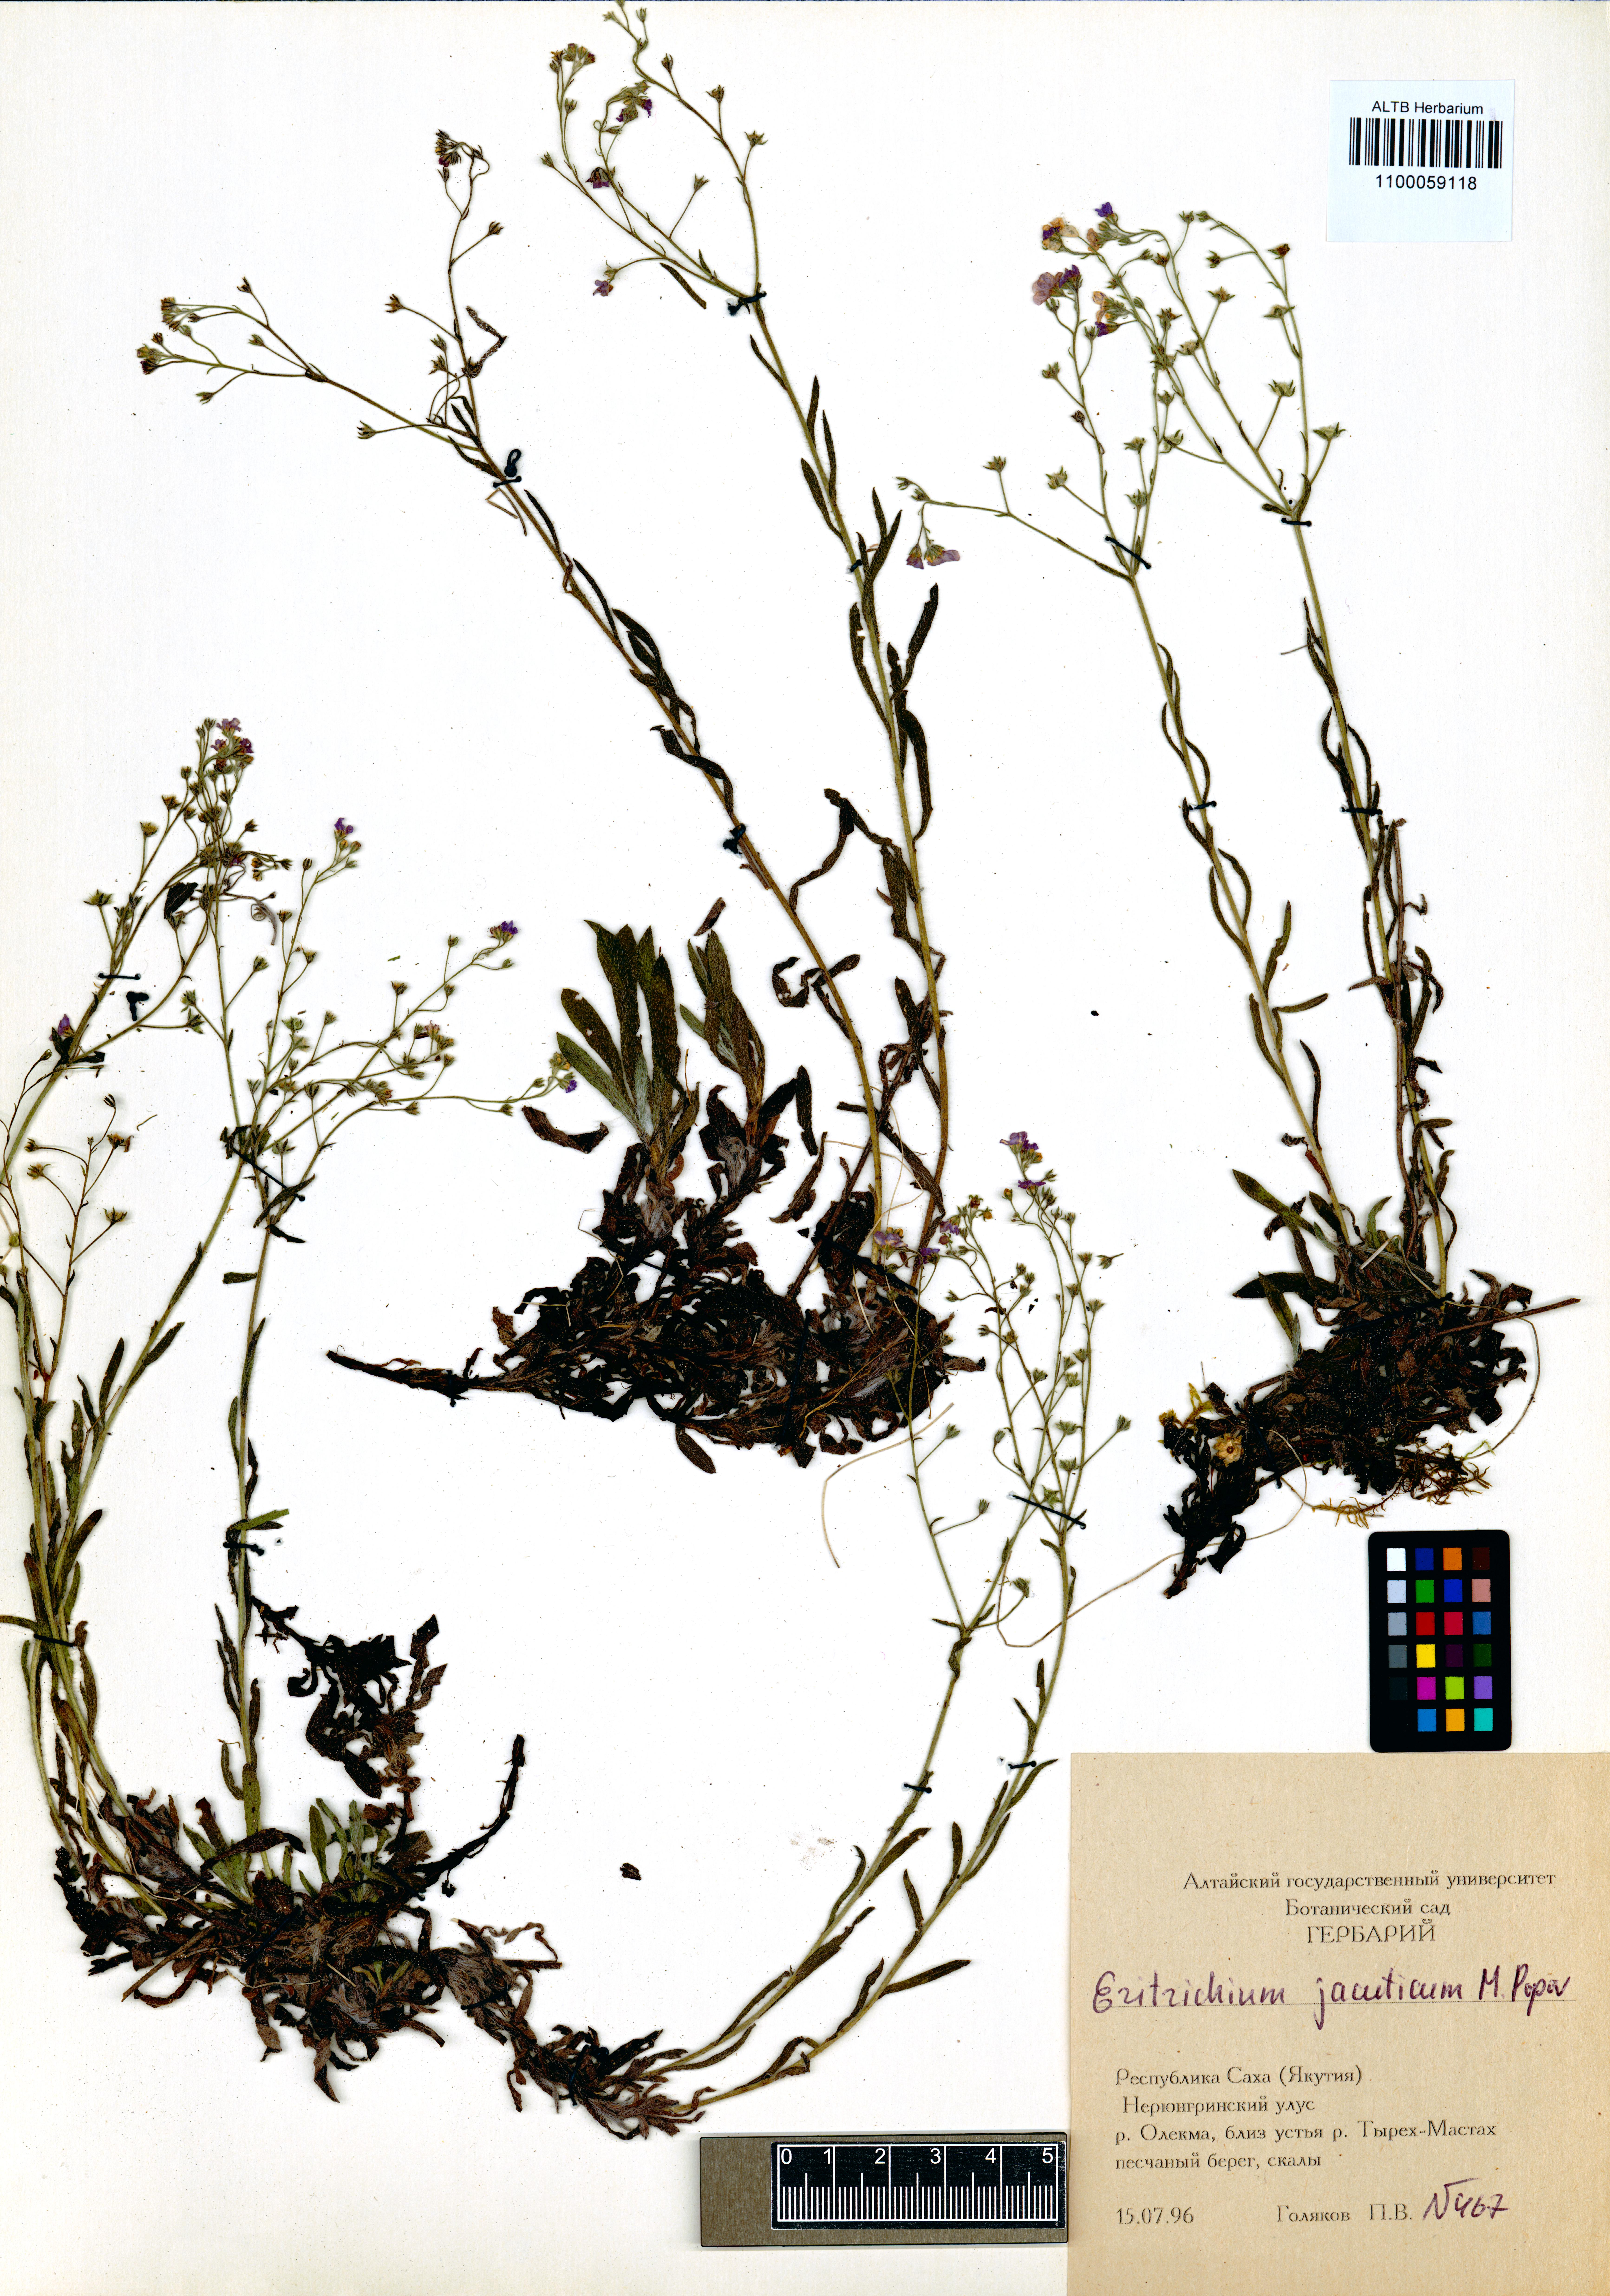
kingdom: Plantae
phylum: Tracheophyta
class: Magnoliopsida
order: Boraginales
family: Boraginaceae
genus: Eritrichium
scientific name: Eritrichium jacuticum
